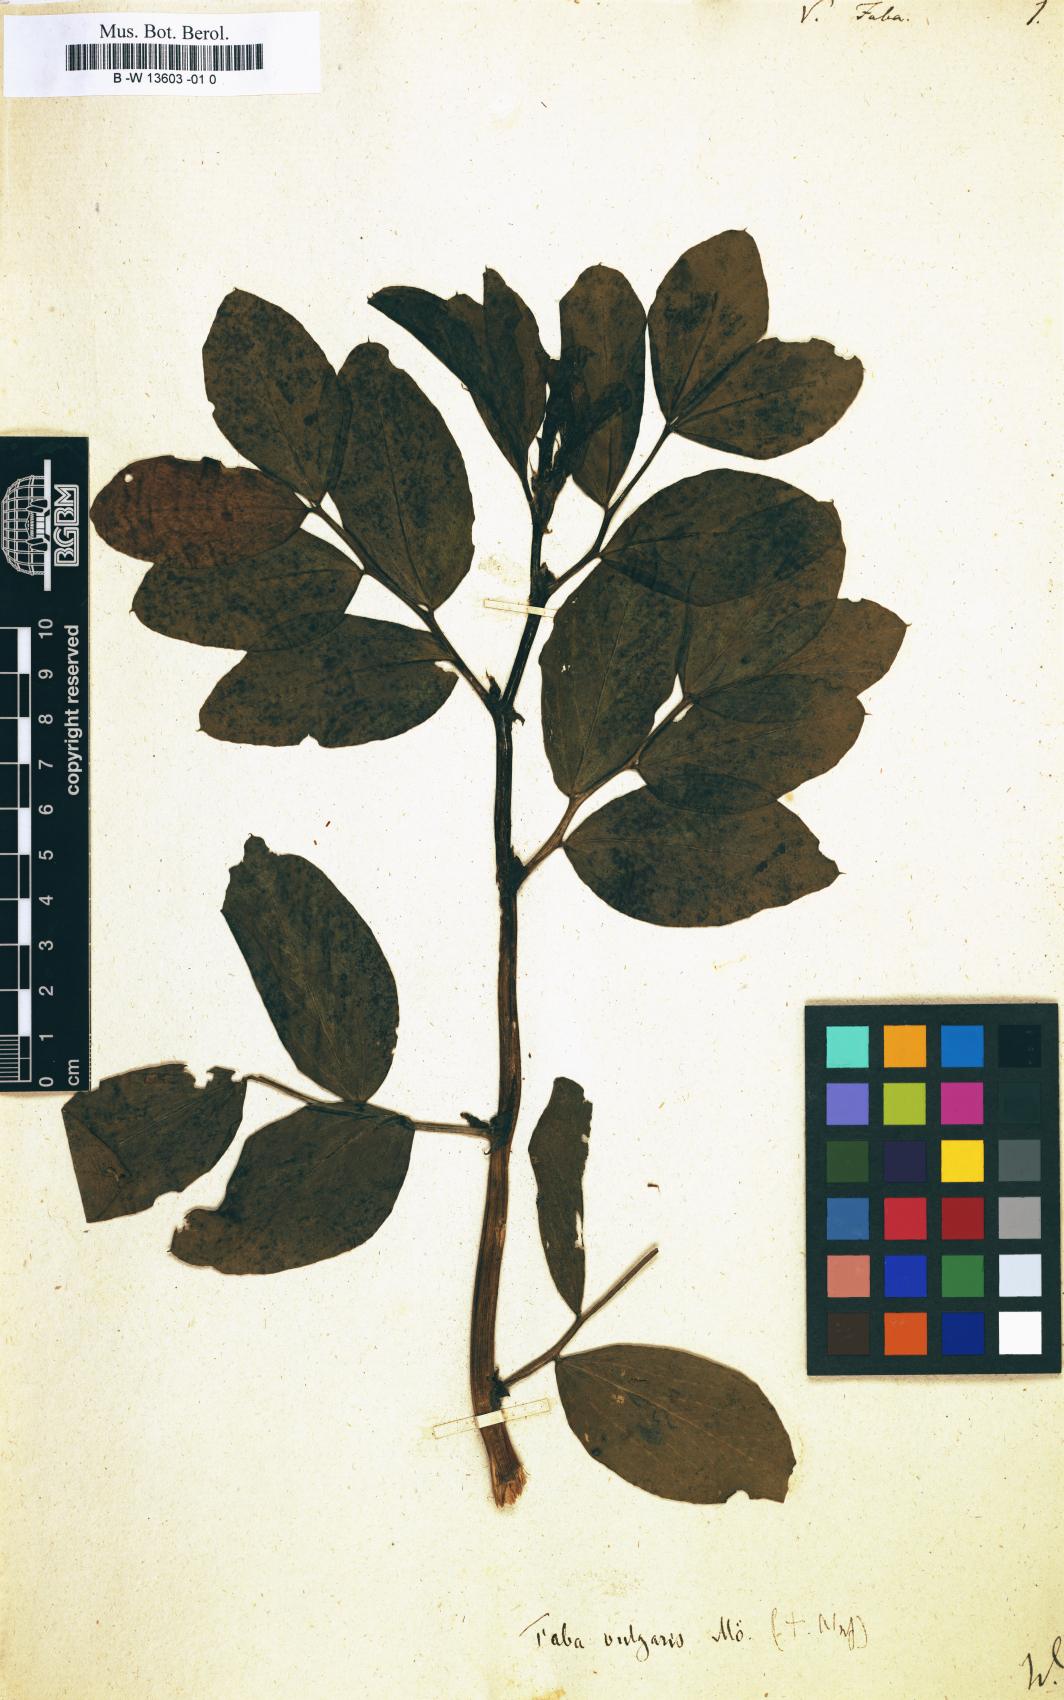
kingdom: Plantae
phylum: Tracheophyta
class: Magnoliopsida
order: Fabales
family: Fabaceae
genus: Vicia
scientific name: Vicia faba
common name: Broad bean
